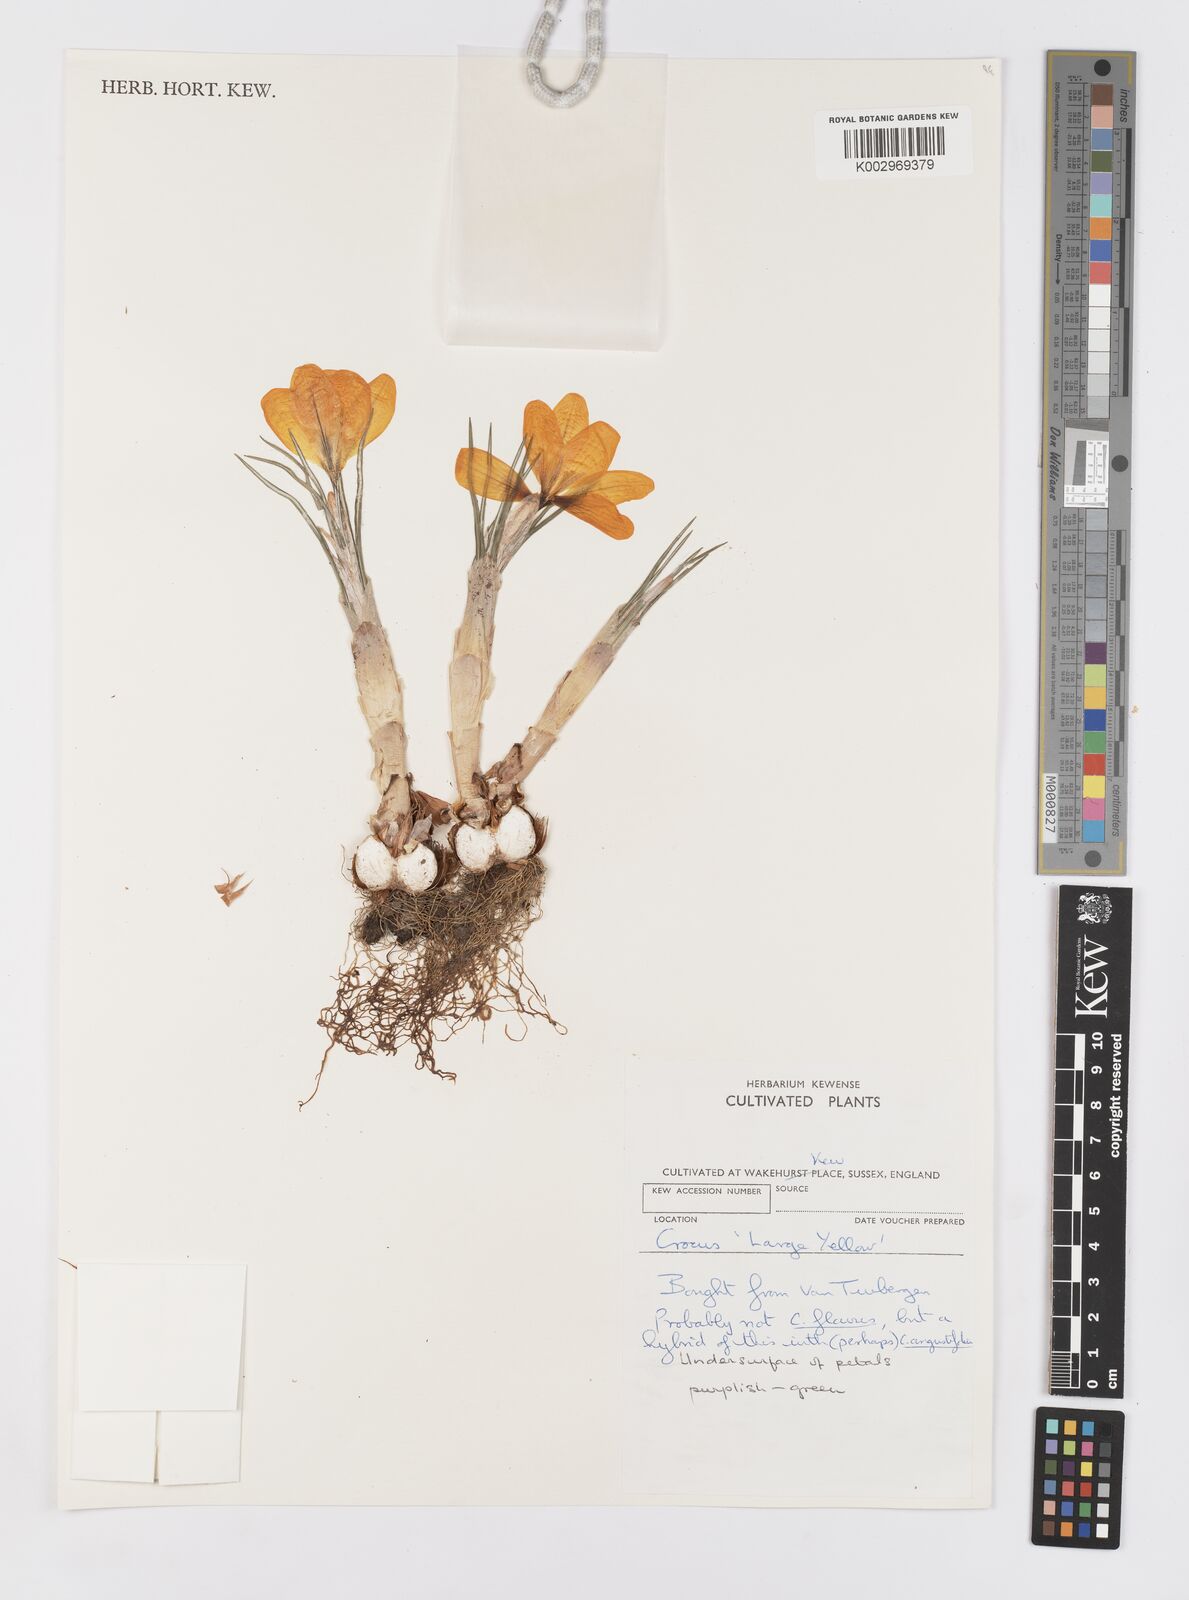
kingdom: Plantae
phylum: Tracheophyta
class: Liliopsida
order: Asparagales
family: Iridaceae
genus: Crocus
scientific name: Crocus
